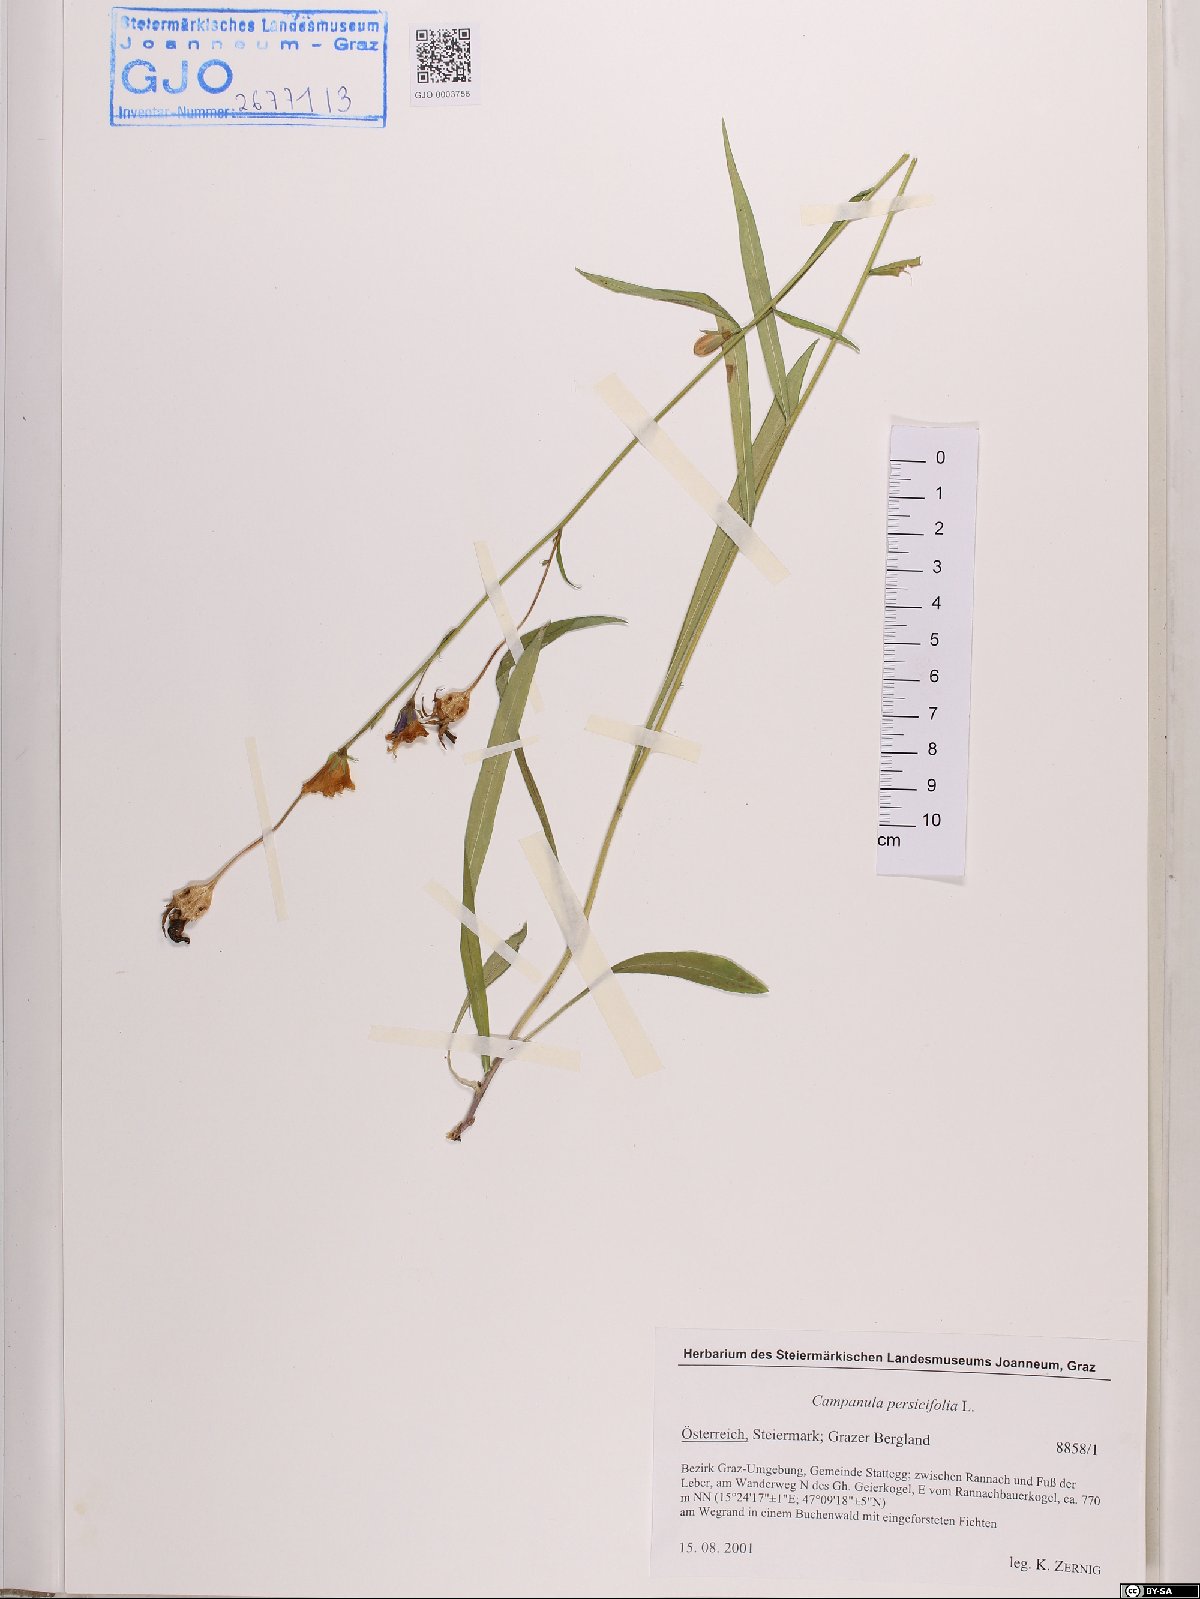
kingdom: Plantae
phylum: Tracheophyta
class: Magnoliopsida
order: Asterales
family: Campanulaceae
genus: Campanula
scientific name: Campanula persicifolia
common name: Peach-leaved bellflower
